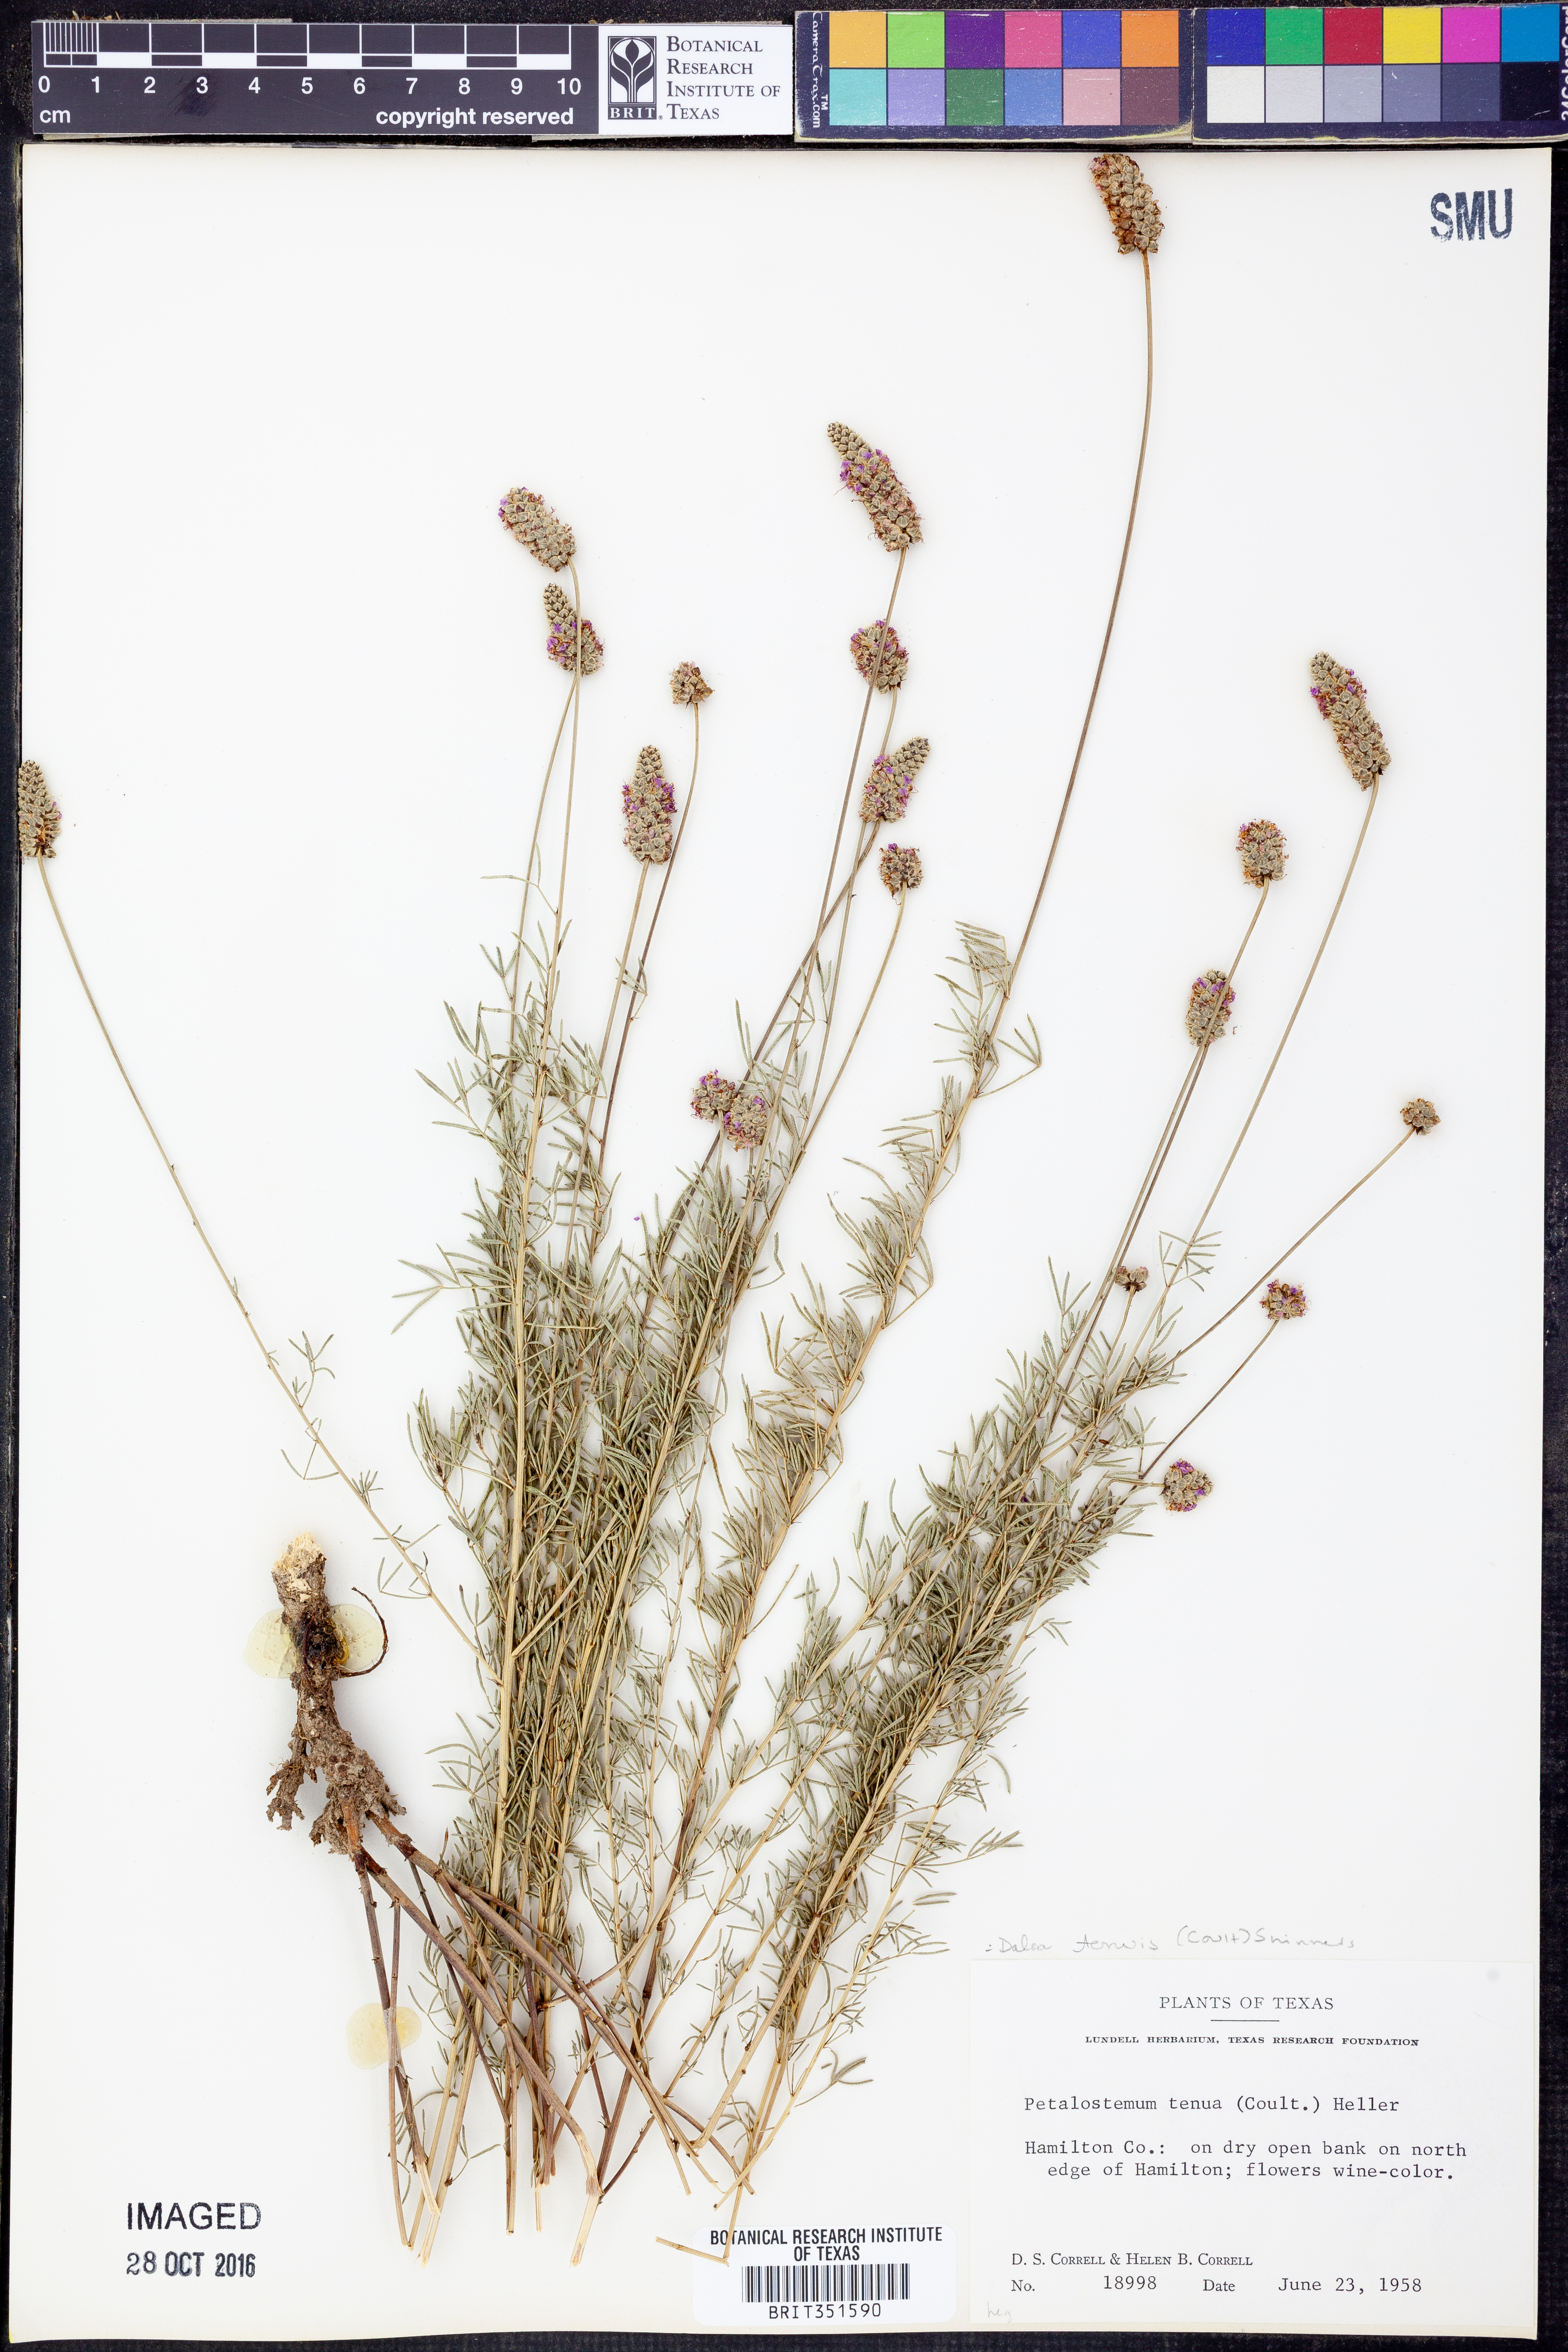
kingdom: Plantae
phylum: Tracheophyta
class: Magnoliopsida
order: Fabales
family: Fabaceae
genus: Dalea
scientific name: Dalea tenuis
